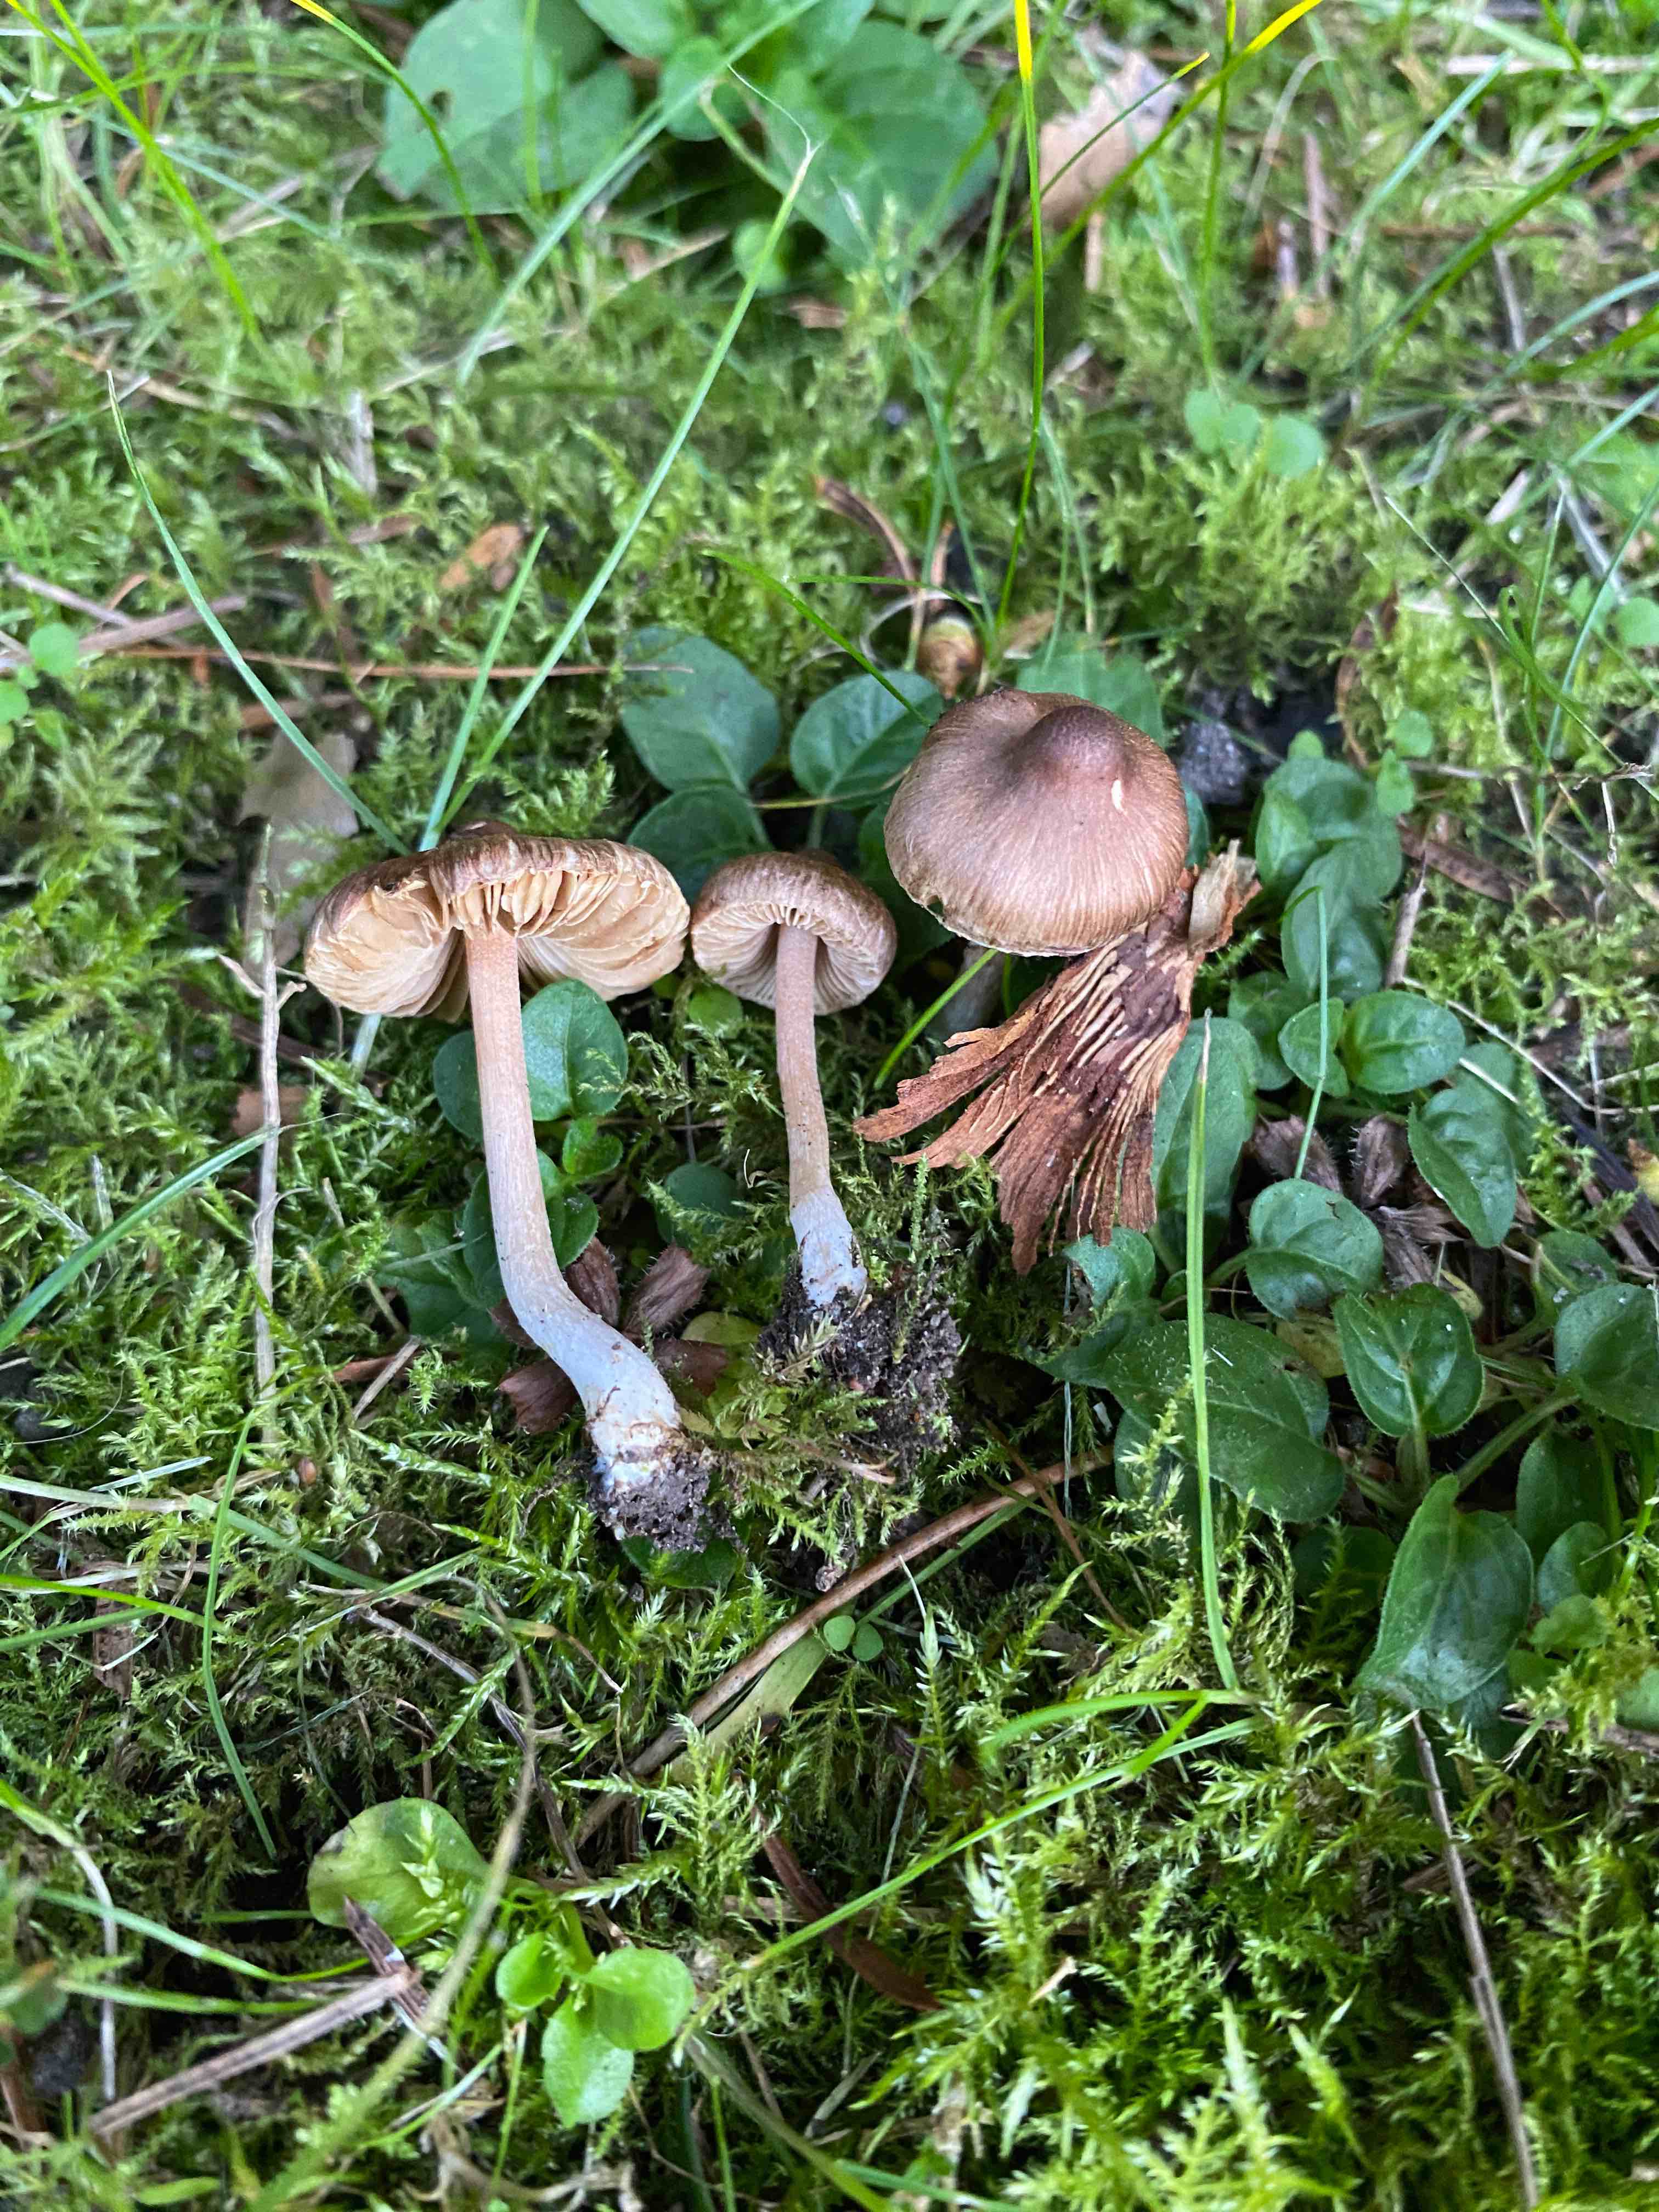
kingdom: Fungi
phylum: Basidiomycota
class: Agaricomycetes
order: Agaricales
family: Inocybaceae
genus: Inocybe
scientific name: Inocybe
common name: trævlhat
